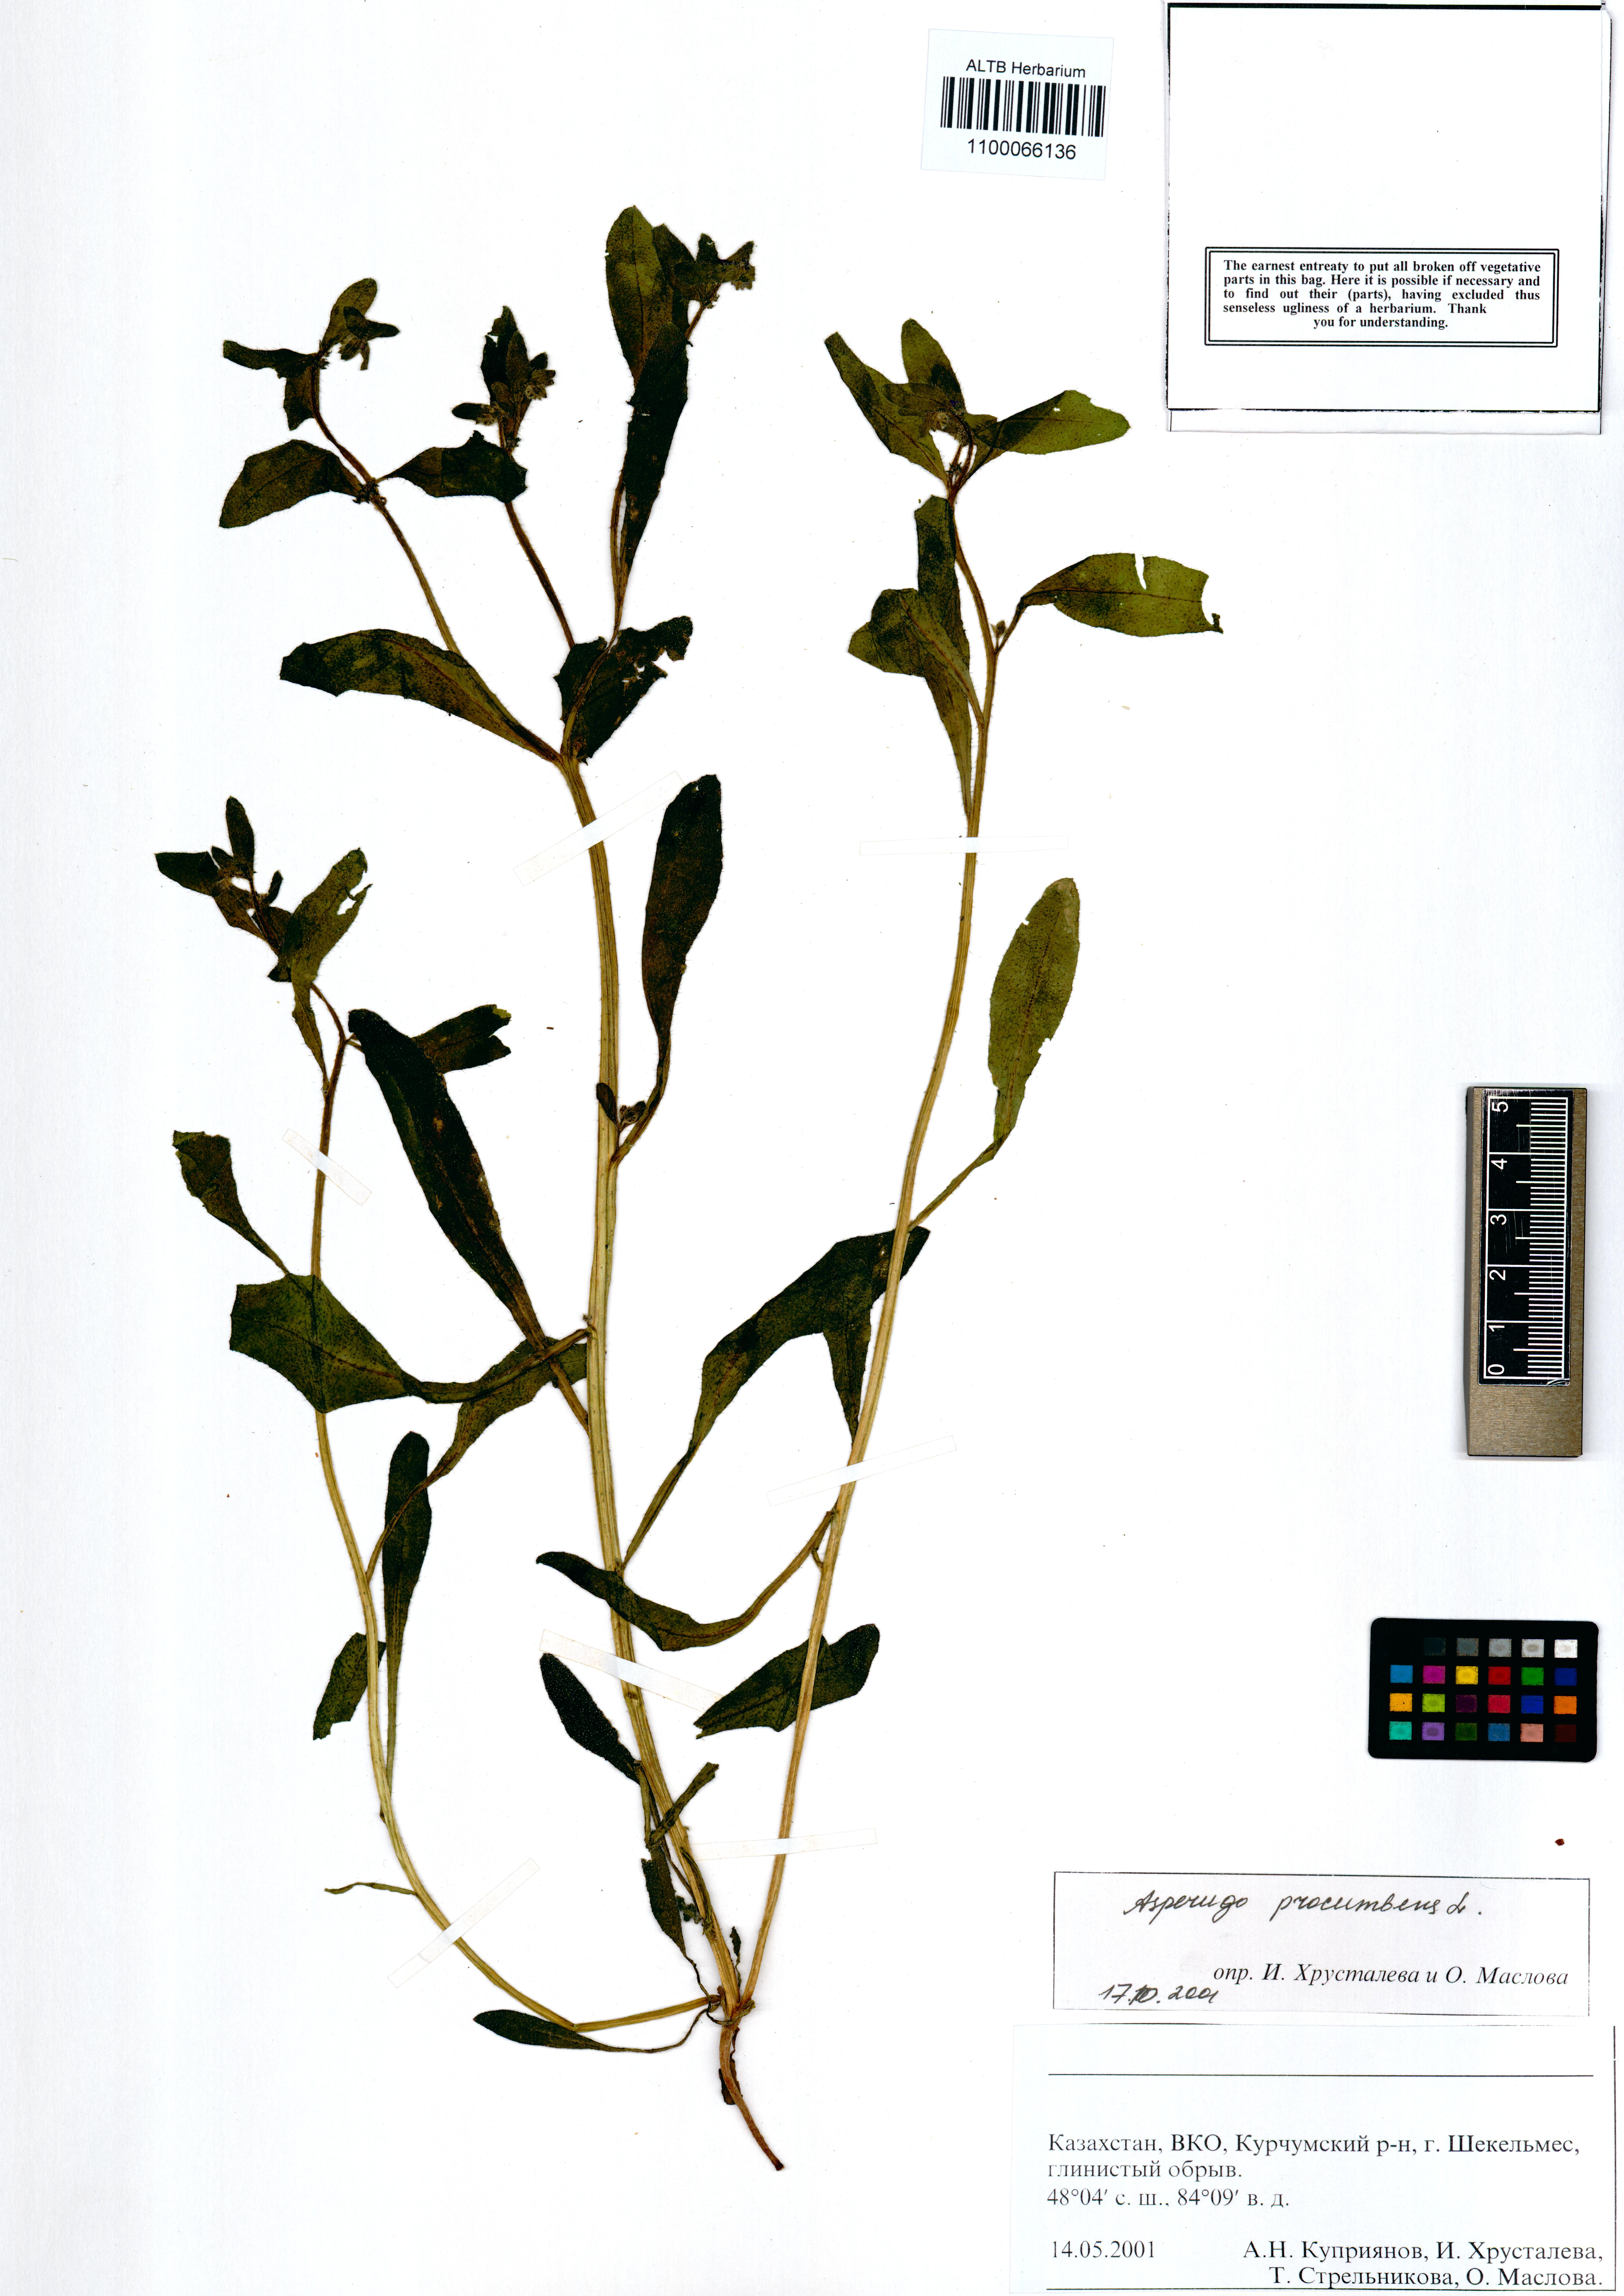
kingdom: Plantae
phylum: Tracheophyta
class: Magnoliopsida
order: Boraginales
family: Boraginaceae
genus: Asperugo
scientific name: Asperugo procumbens
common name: Madwort
